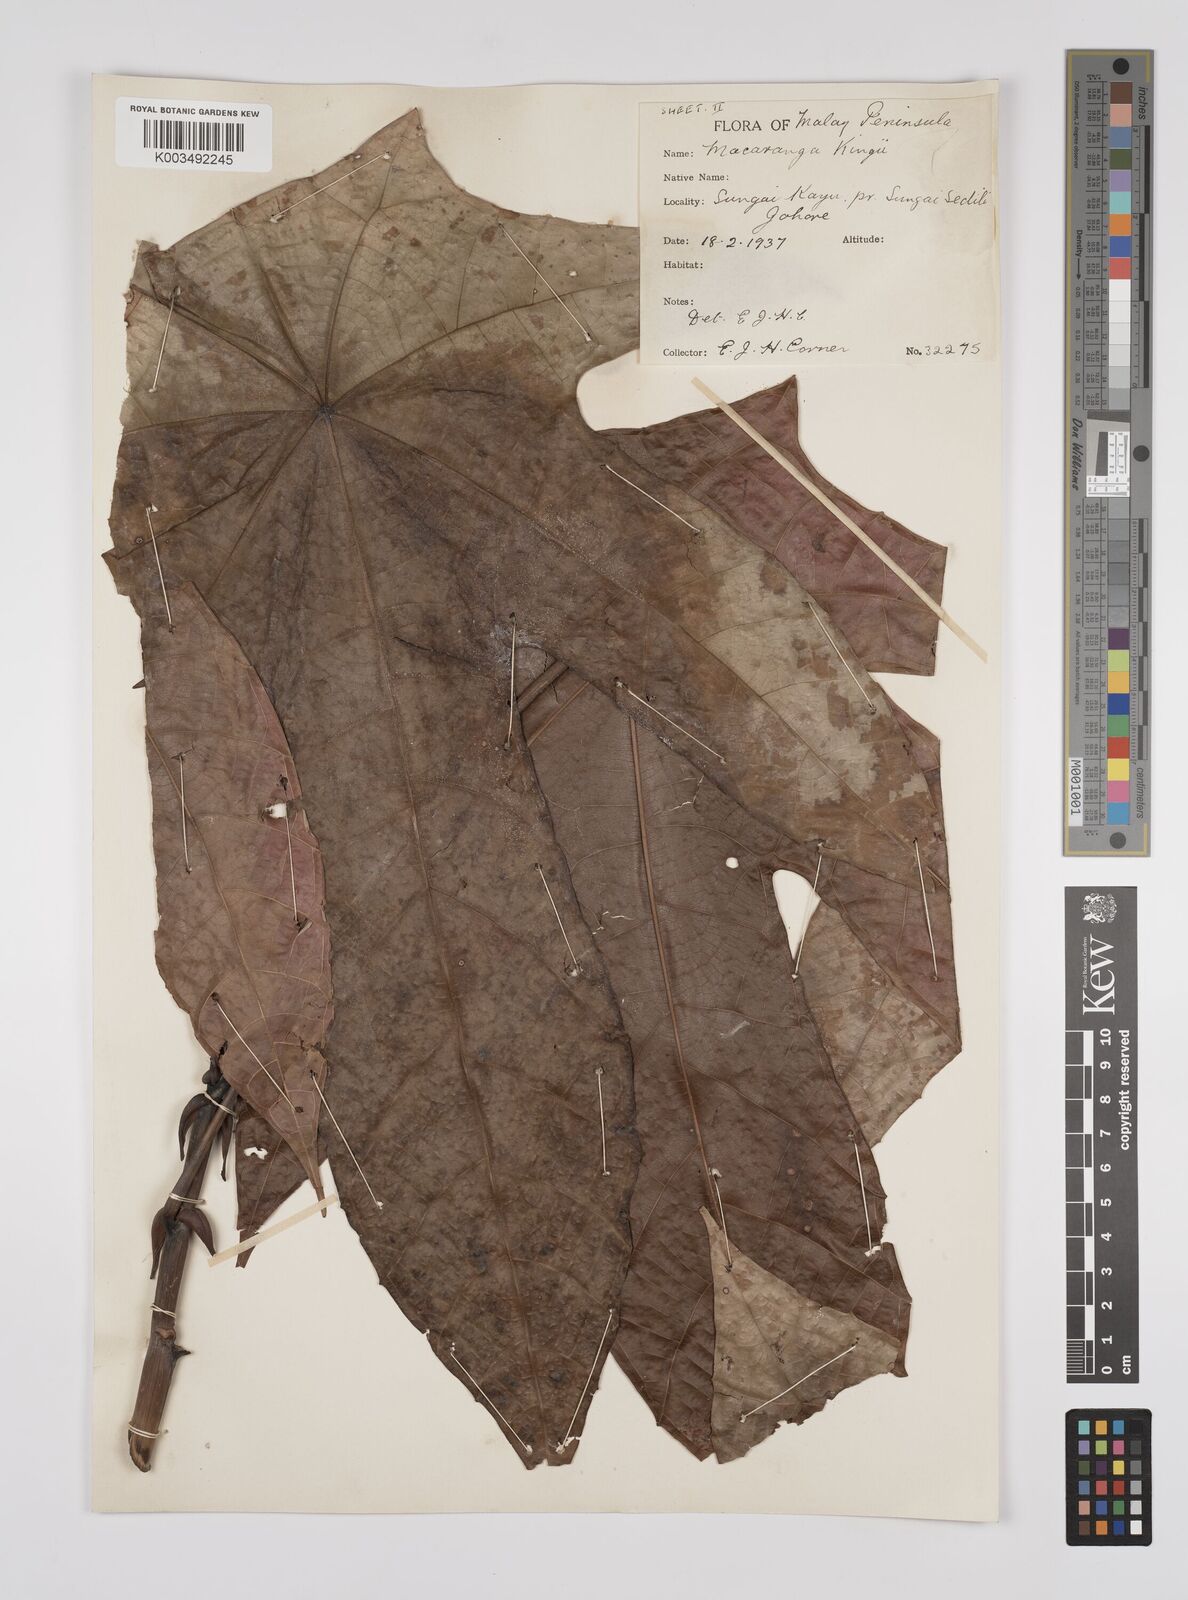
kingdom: Plantae
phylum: Tracheophyta
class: Magnoliopsida
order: Malpighiales
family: Euphorbiaceae
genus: Macaranga
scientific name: Macaranga kingii
